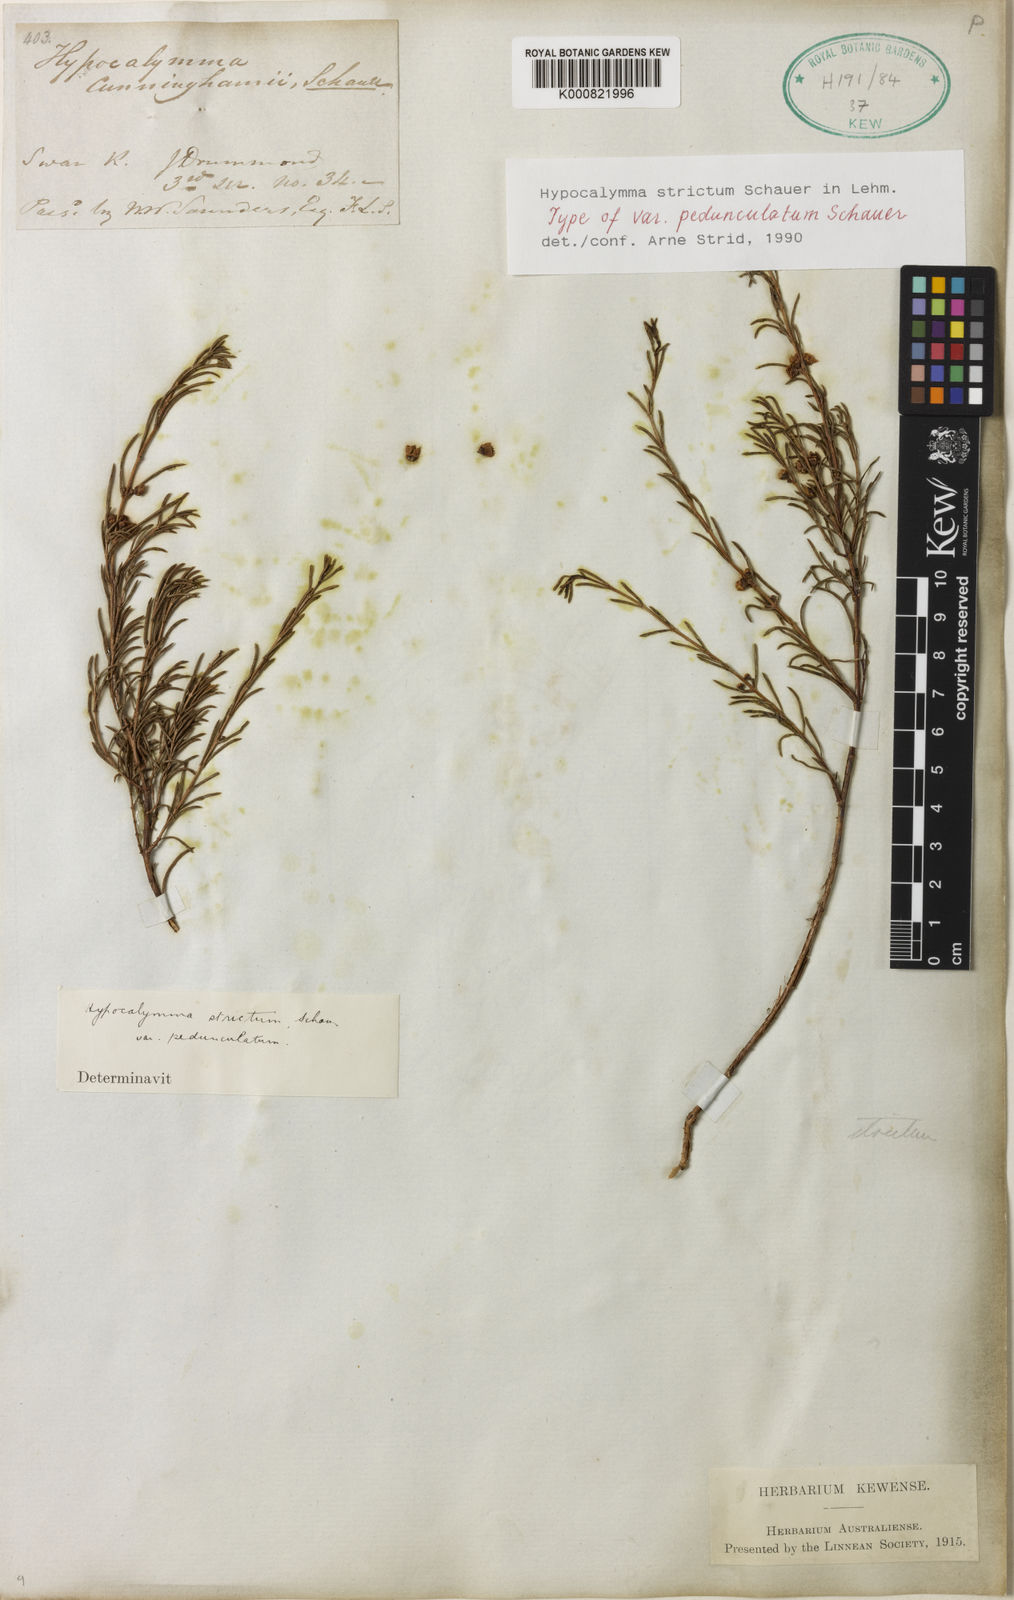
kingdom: Plantae
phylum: Tracheophyta
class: Magnoliopsida
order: Myrtales
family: Myrtaceae
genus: Hypocalymma
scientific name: Hypocalymma strictum
